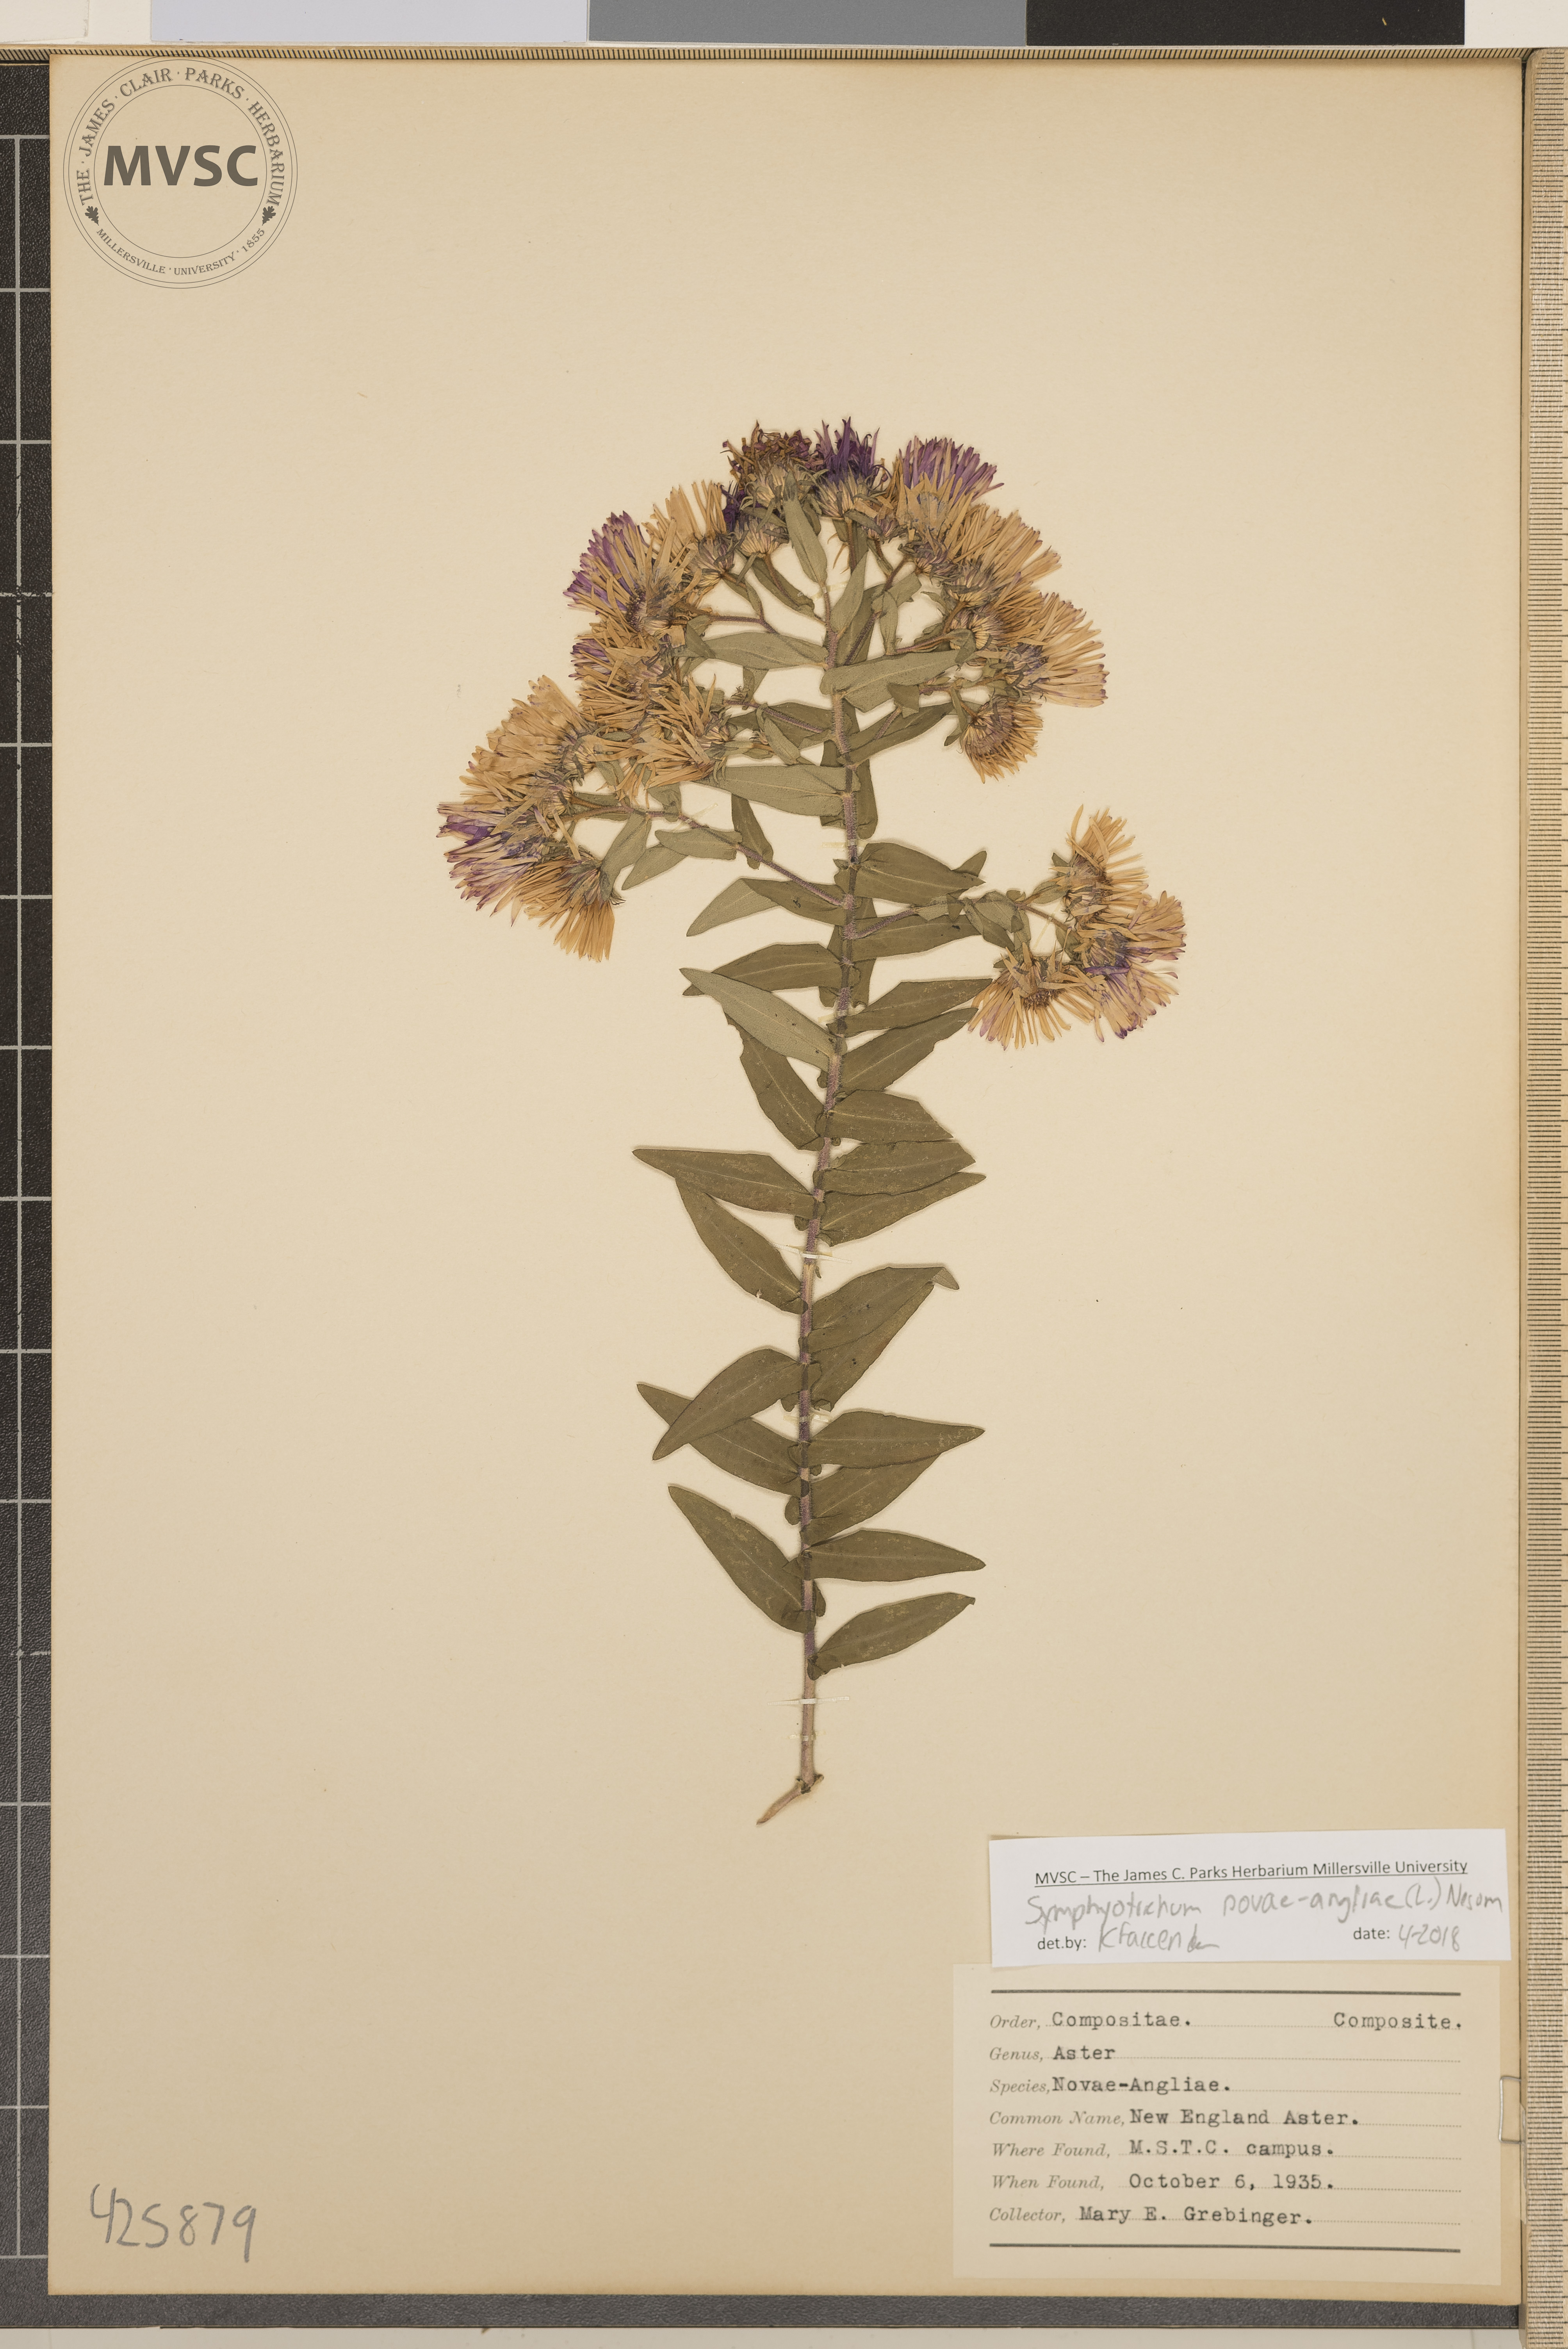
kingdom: Plantae
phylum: Tracheophyta
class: Magnoliopsida
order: Asterales
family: Asteraceae
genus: Symphyotrichum
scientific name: Symphyotrichum novae-angliae
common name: New England aster
